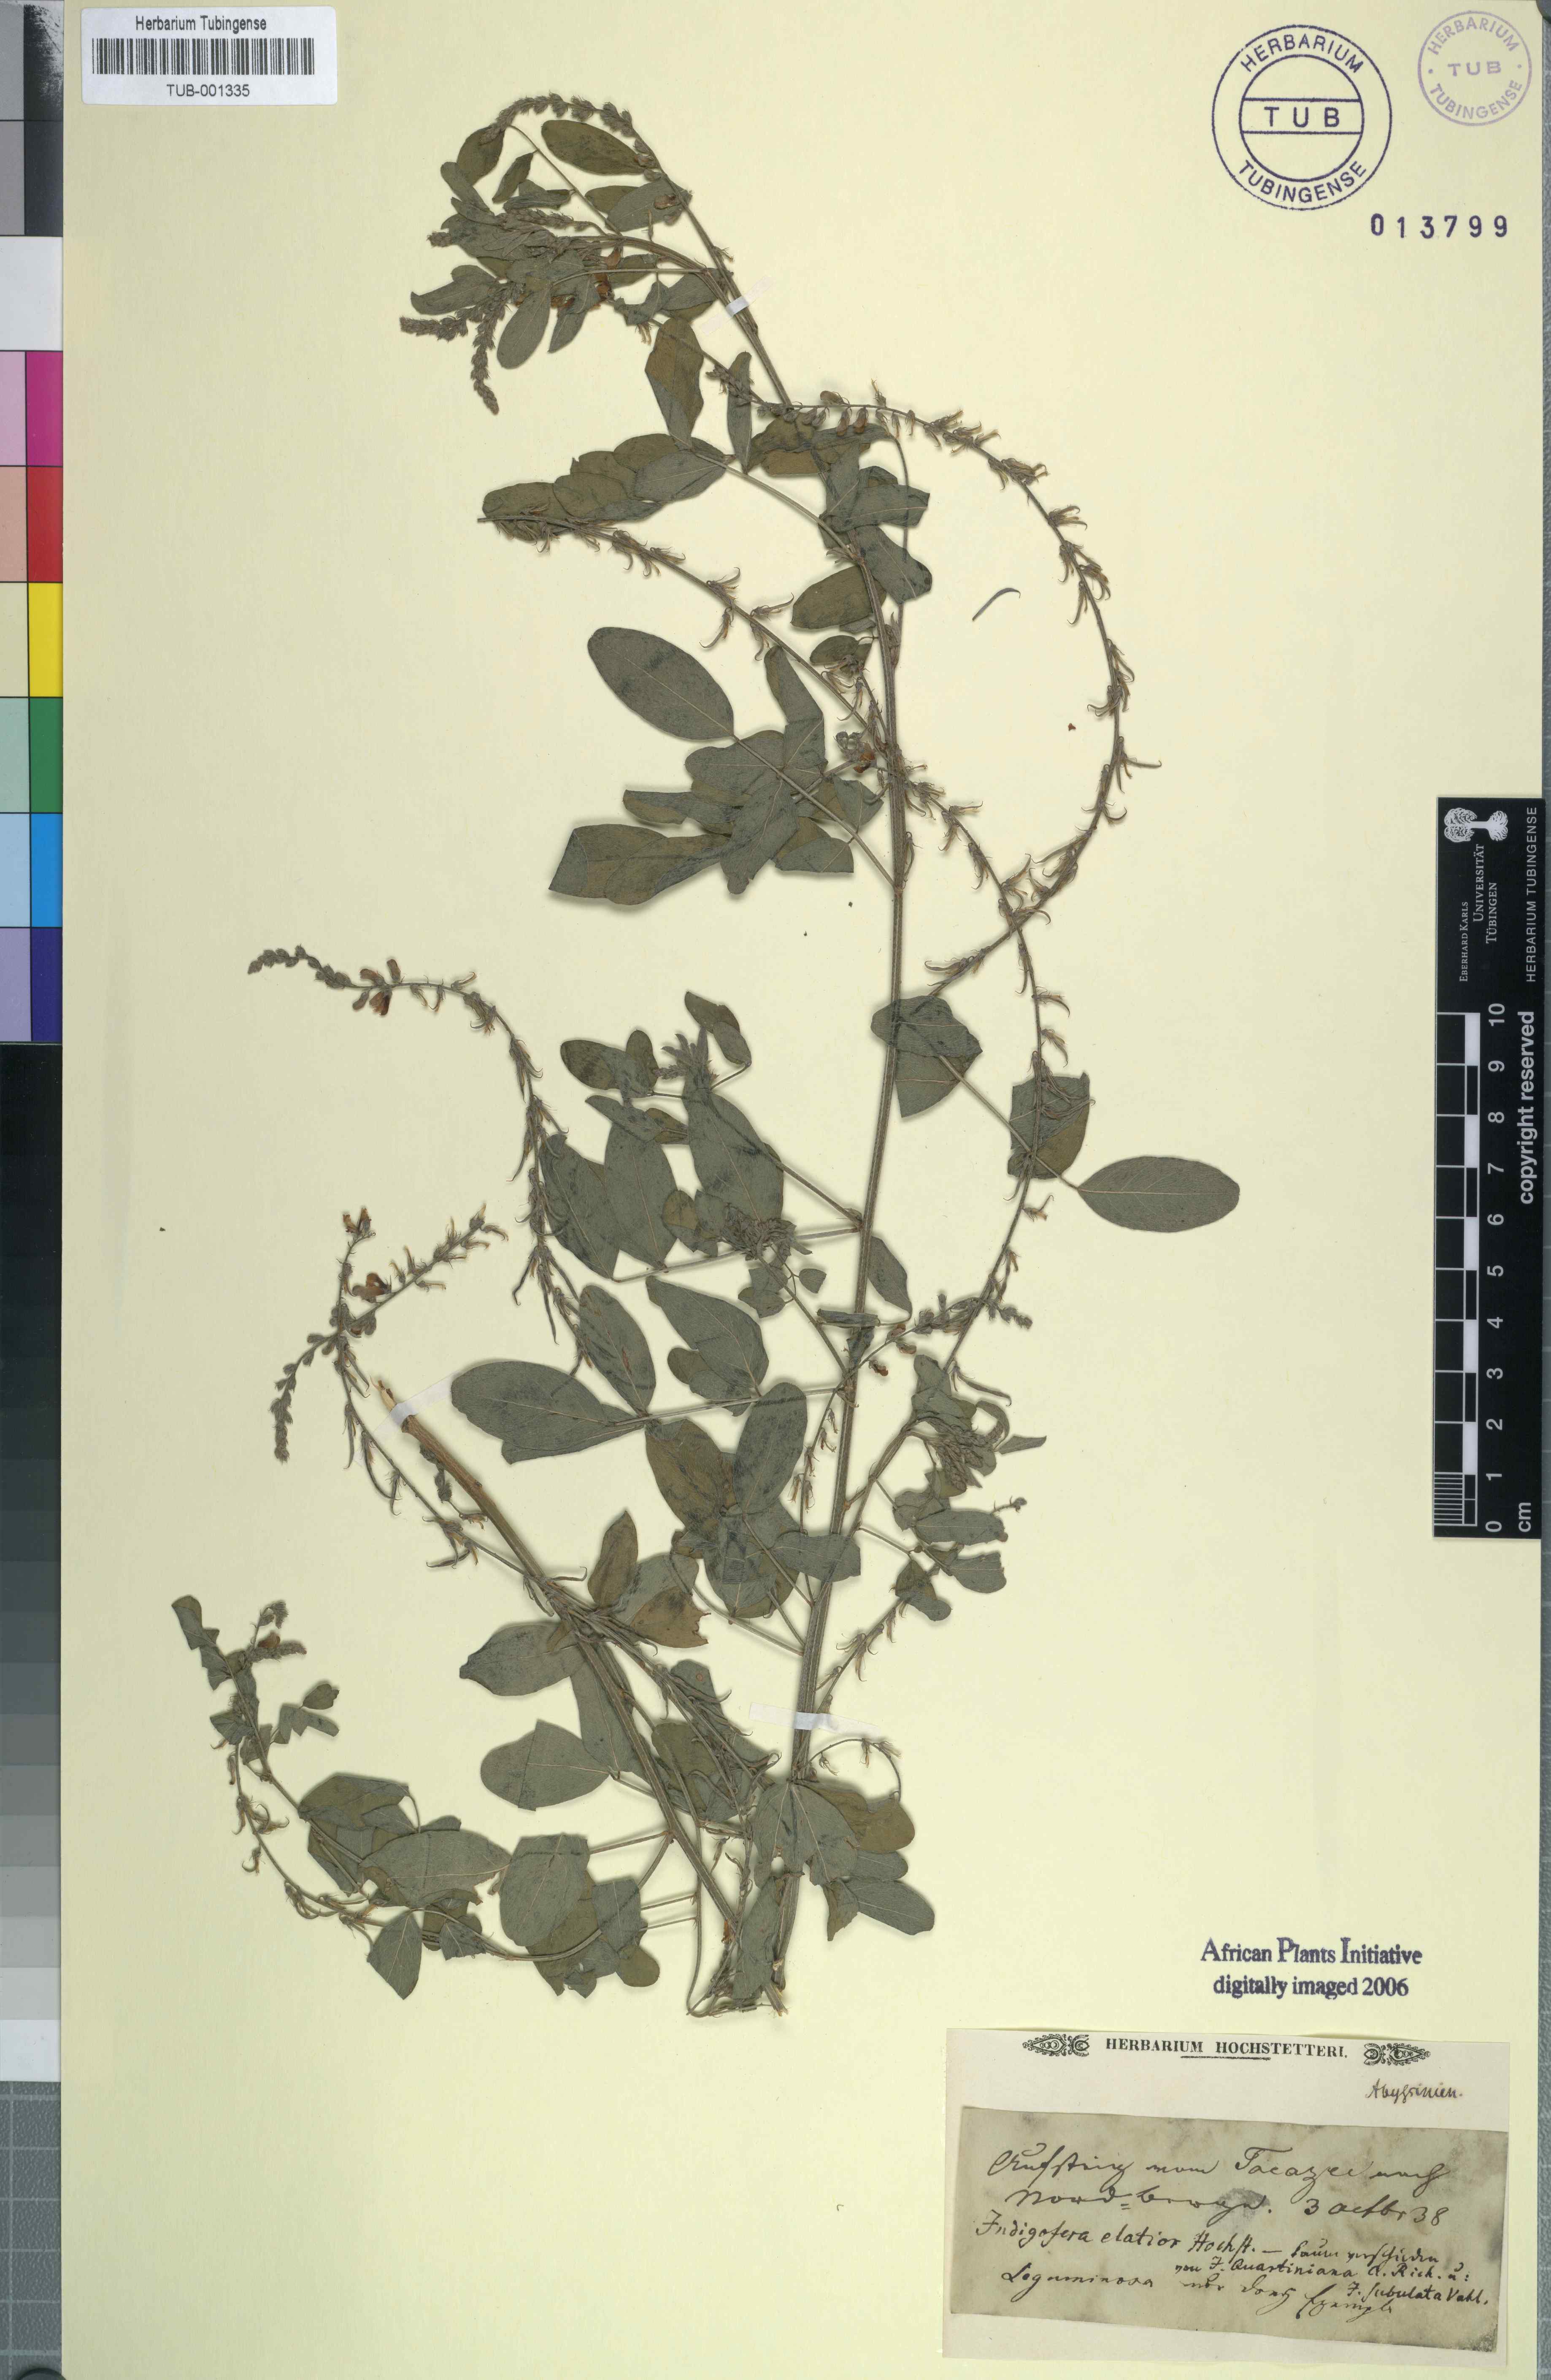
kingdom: Plantae
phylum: Tracheophyta
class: Magnoliopsida
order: Fabales
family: Fabaceae
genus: Indigofera
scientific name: Indigofera
